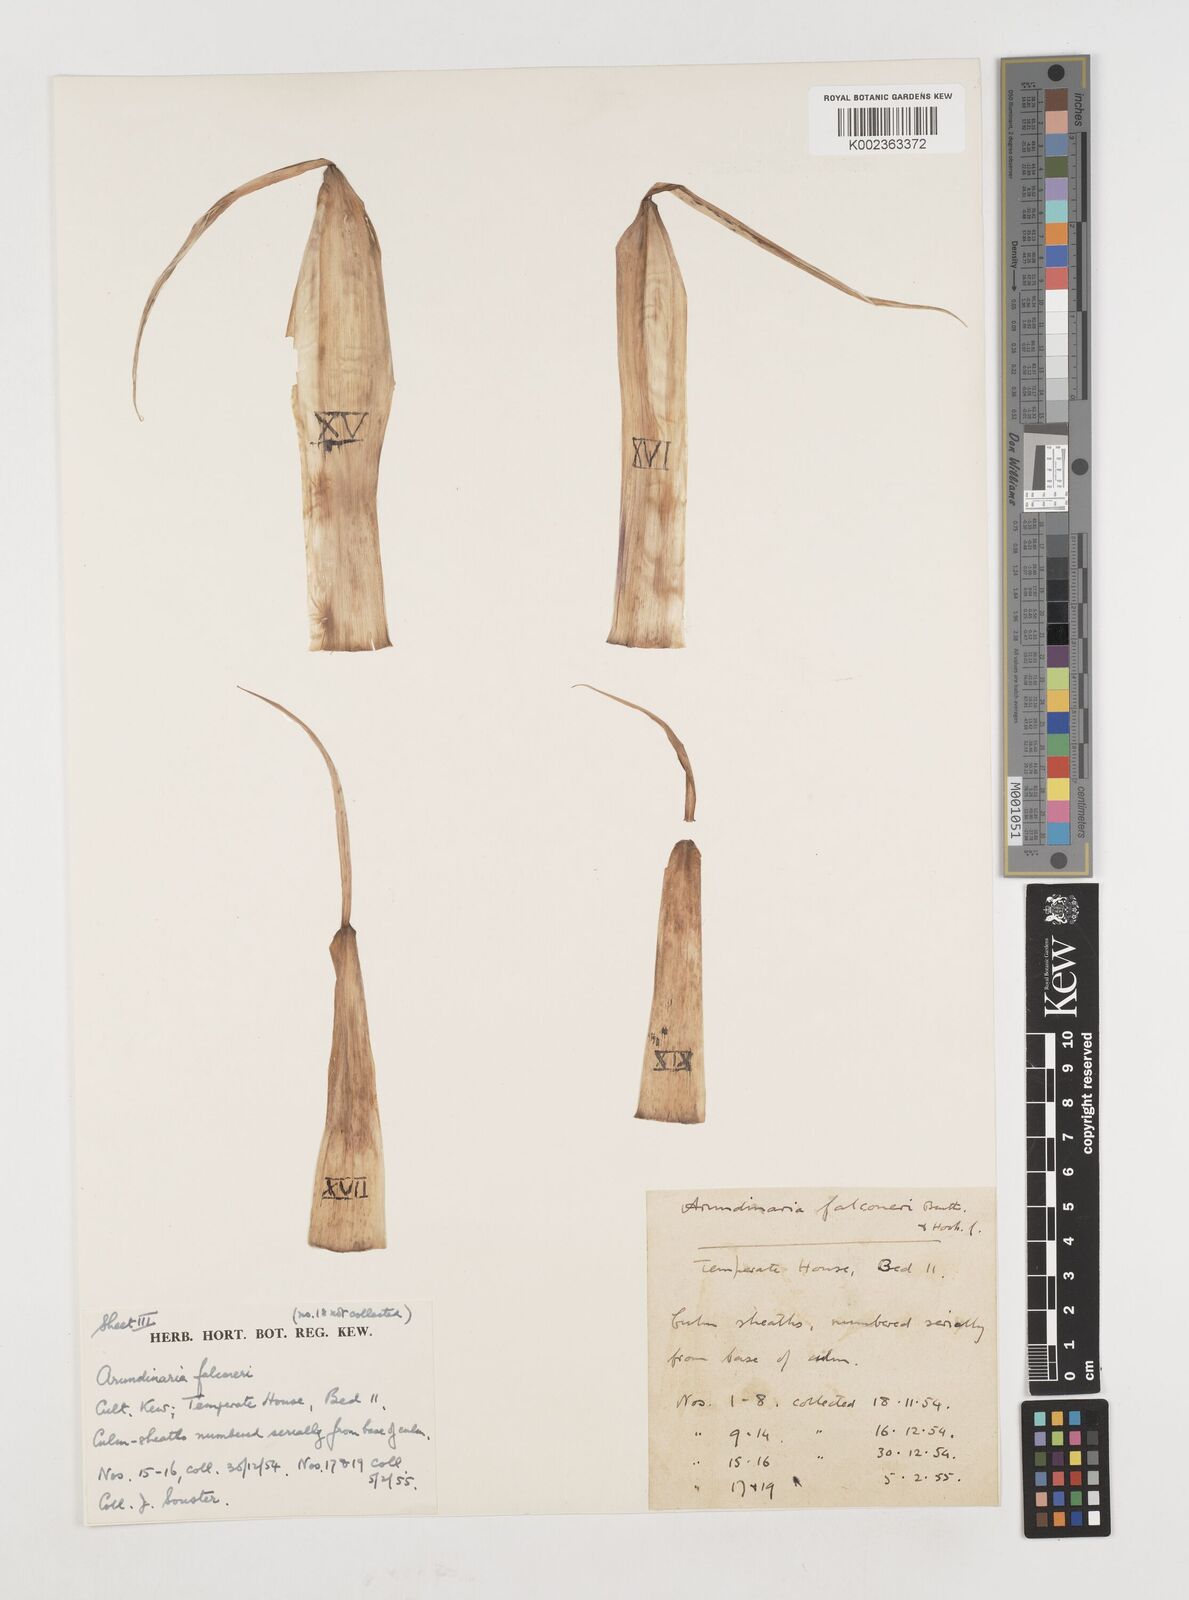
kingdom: Plantae
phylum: Tracheophyta
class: Liliopsida
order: Poales
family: Poaceae
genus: Himalayacalamus
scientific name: Himalayacalamus falconeri
